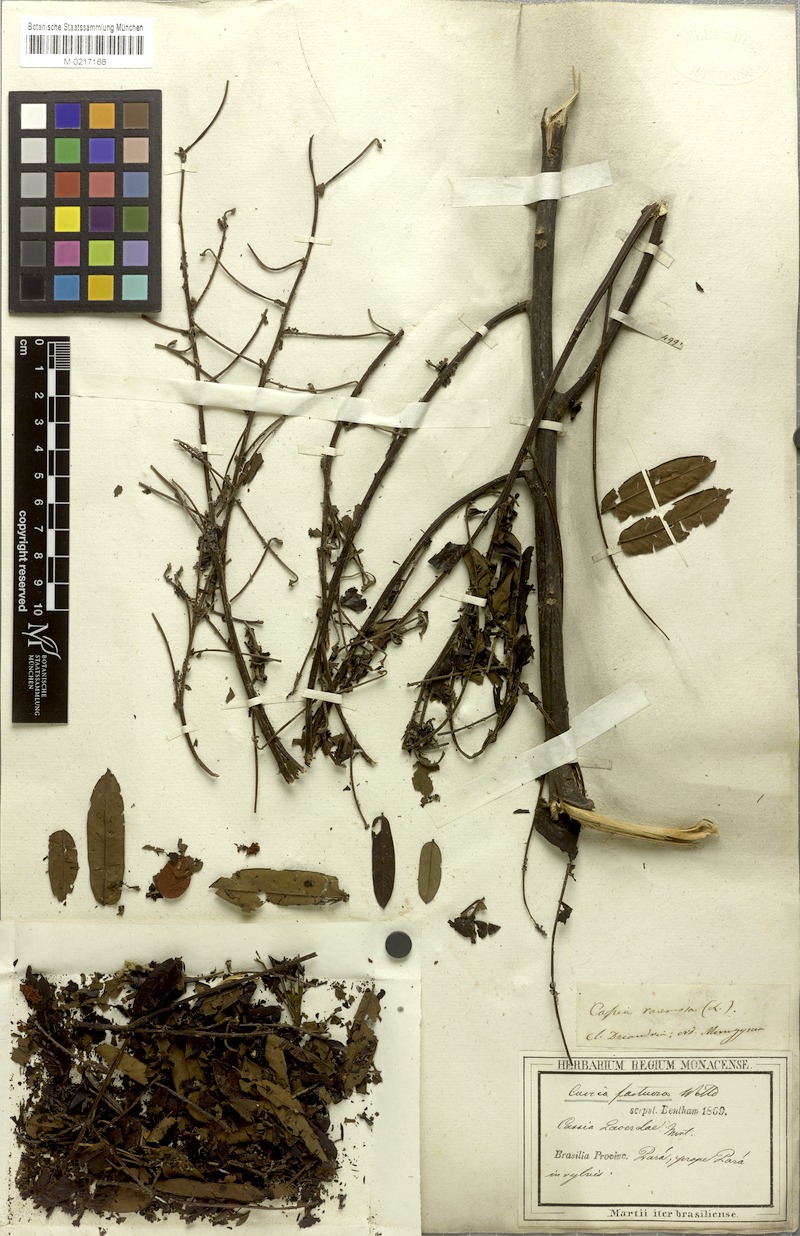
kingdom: Plantae
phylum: Tracheophyta
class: Magnoliopsida
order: Fabales
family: Fabaceae
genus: Cassia
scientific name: Cassia
